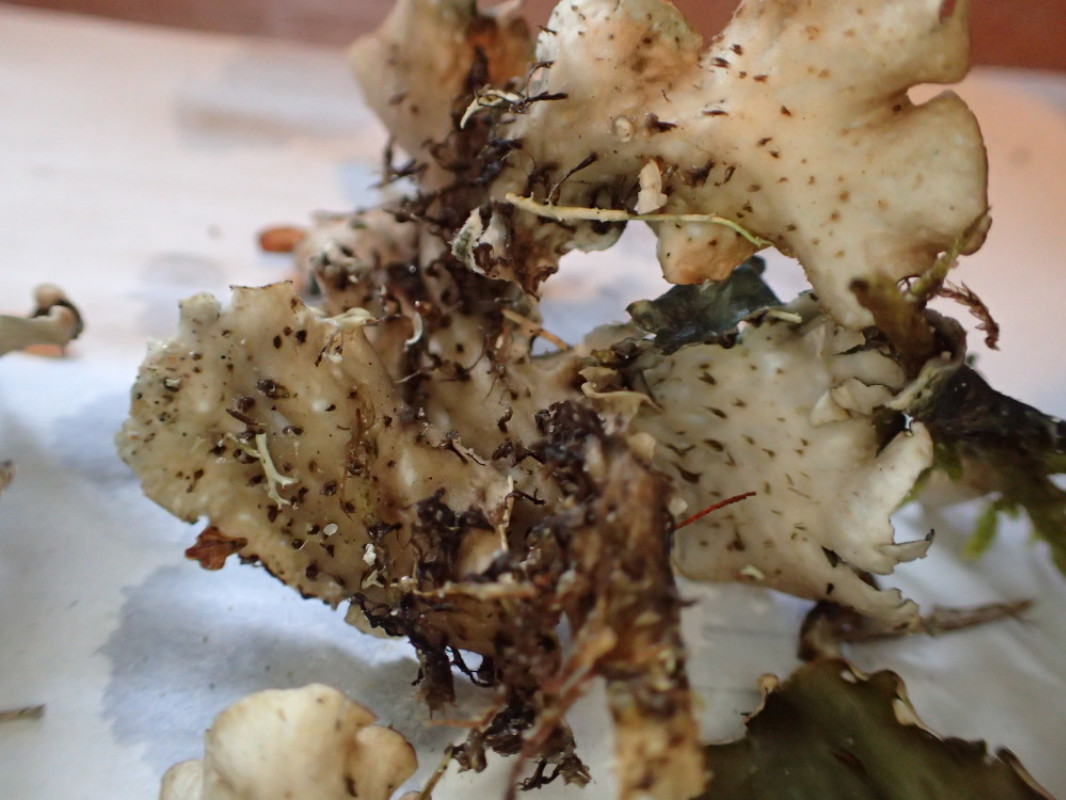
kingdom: Fungi
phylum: Ascomycota
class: Lecanoromycetes
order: Peltigerales
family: Peltigeraceae
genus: Peltigera
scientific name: Peltigera hymenina
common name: hinde-skjoldlav
